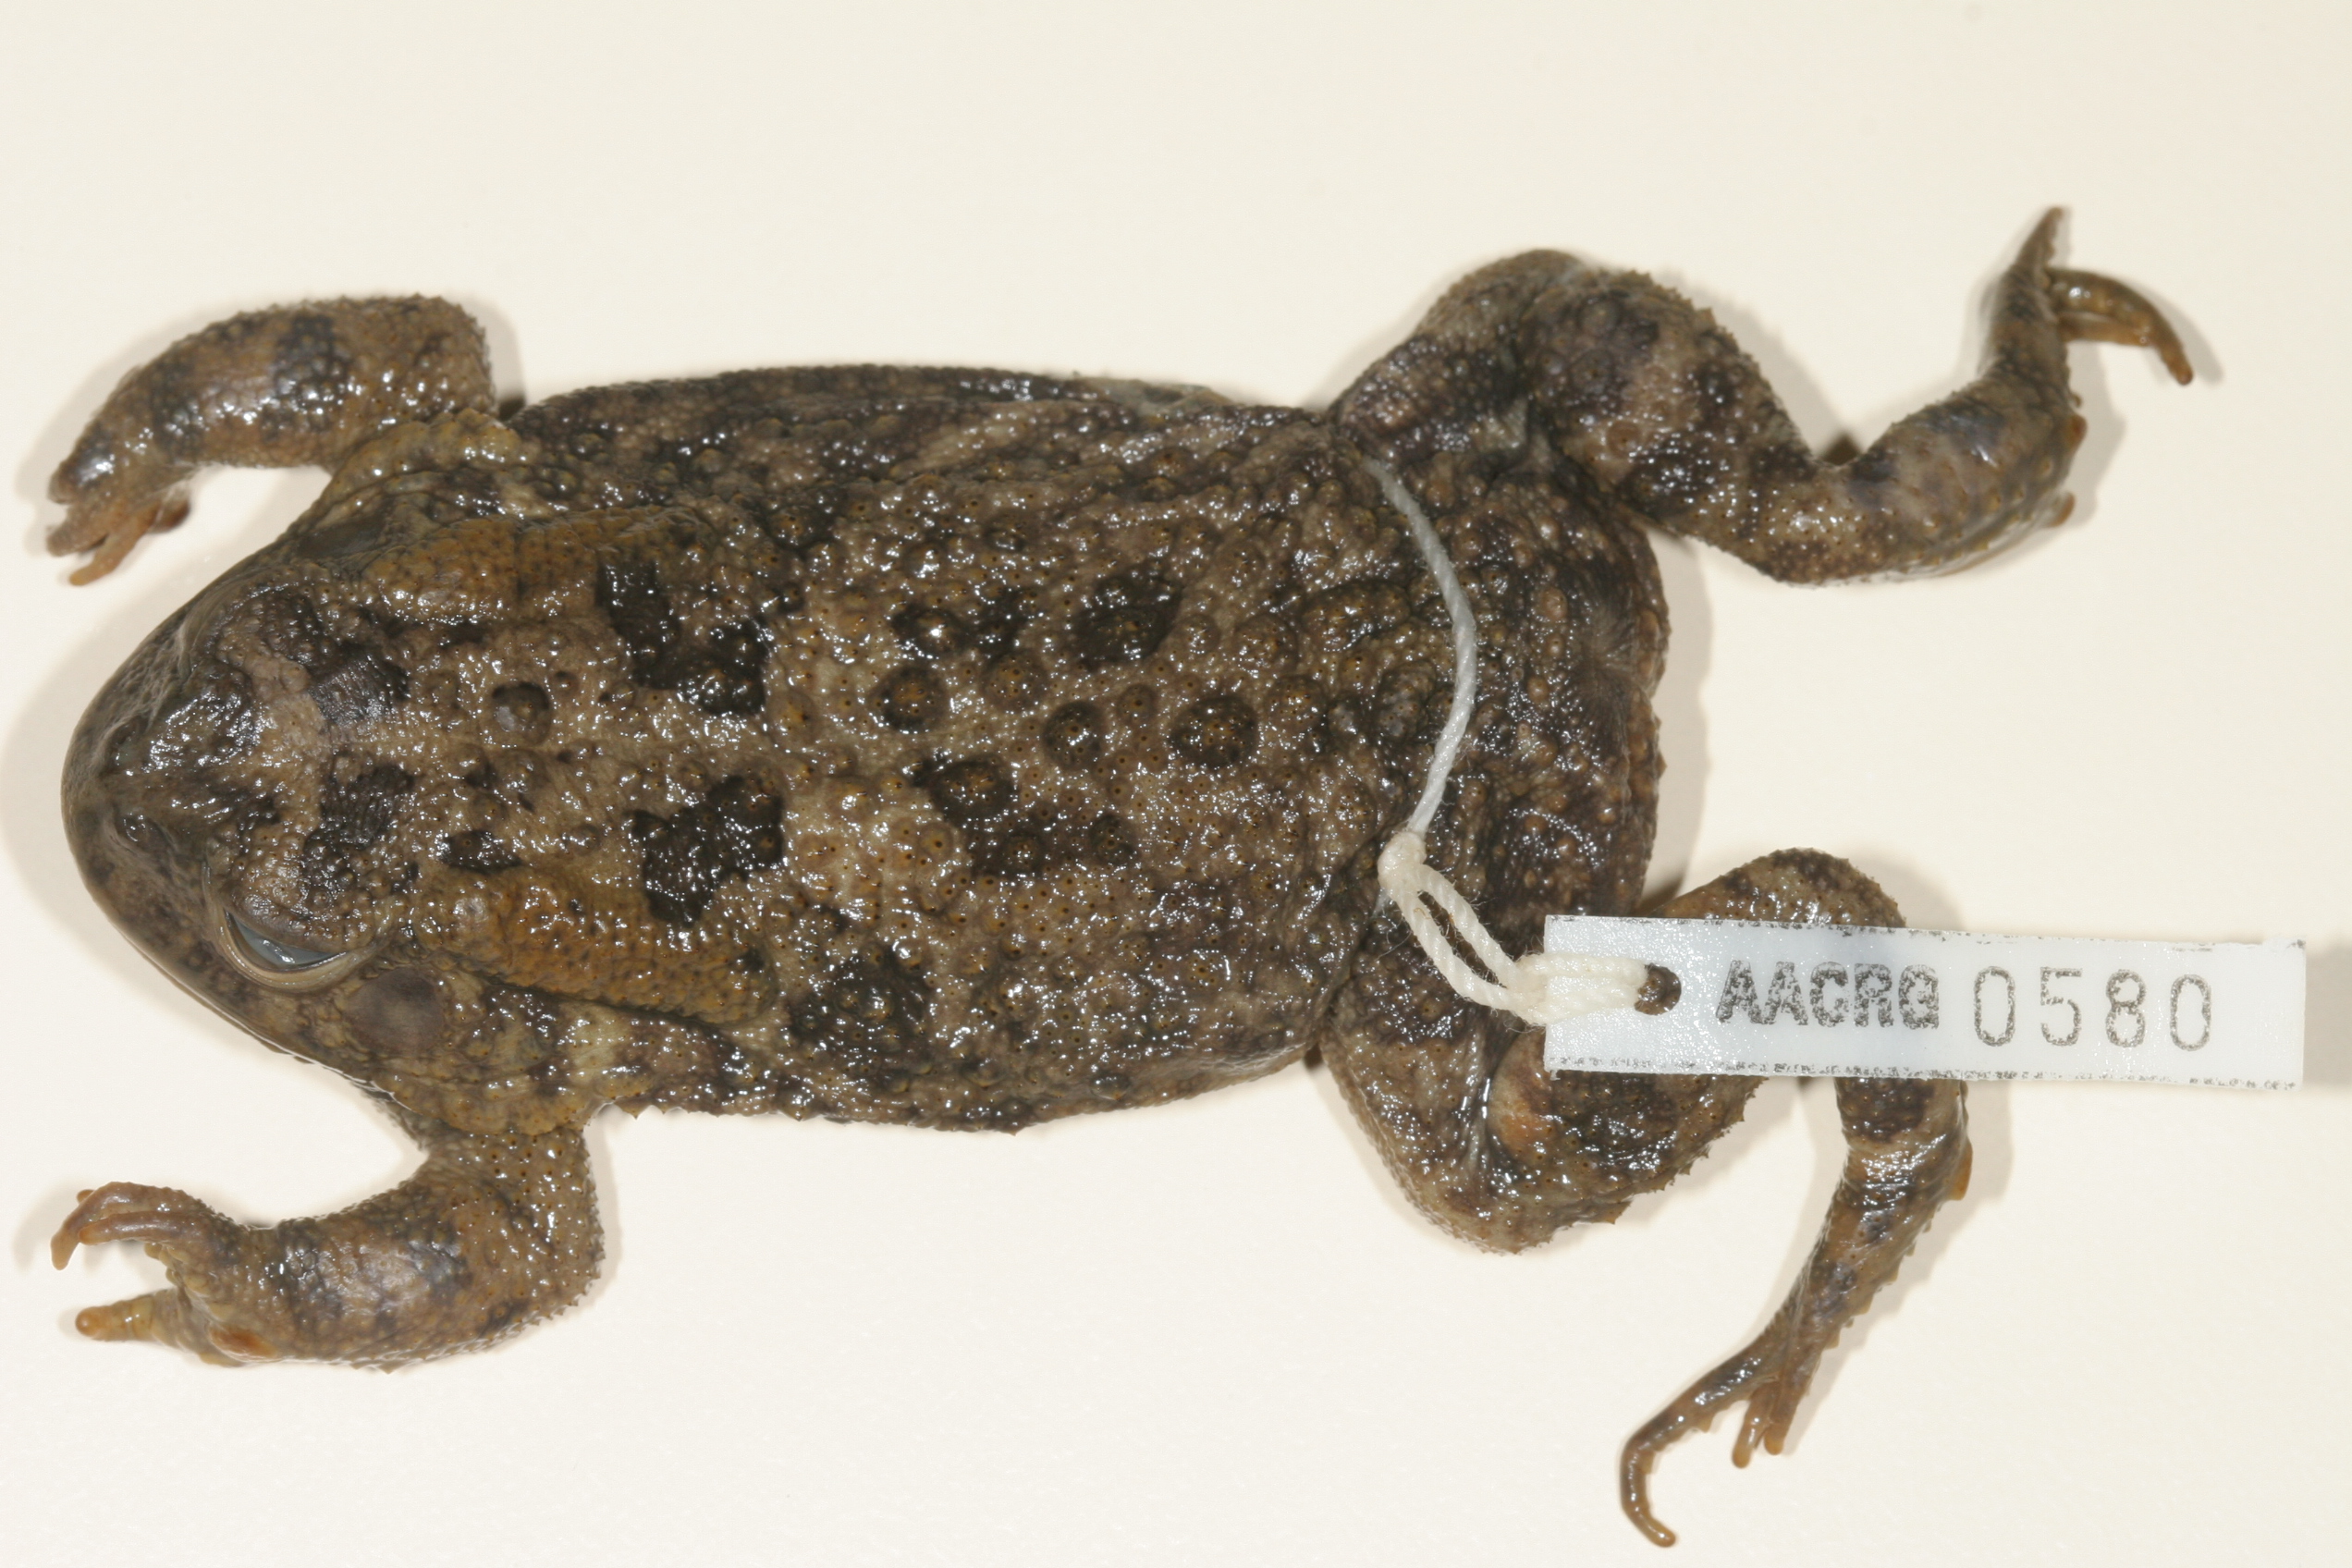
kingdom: Animalia
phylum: Chordata
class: Amphibia
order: Anura
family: Bufonidae
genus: Sclerophrys
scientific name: Sclerophrys gutturalis
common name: African common toad
